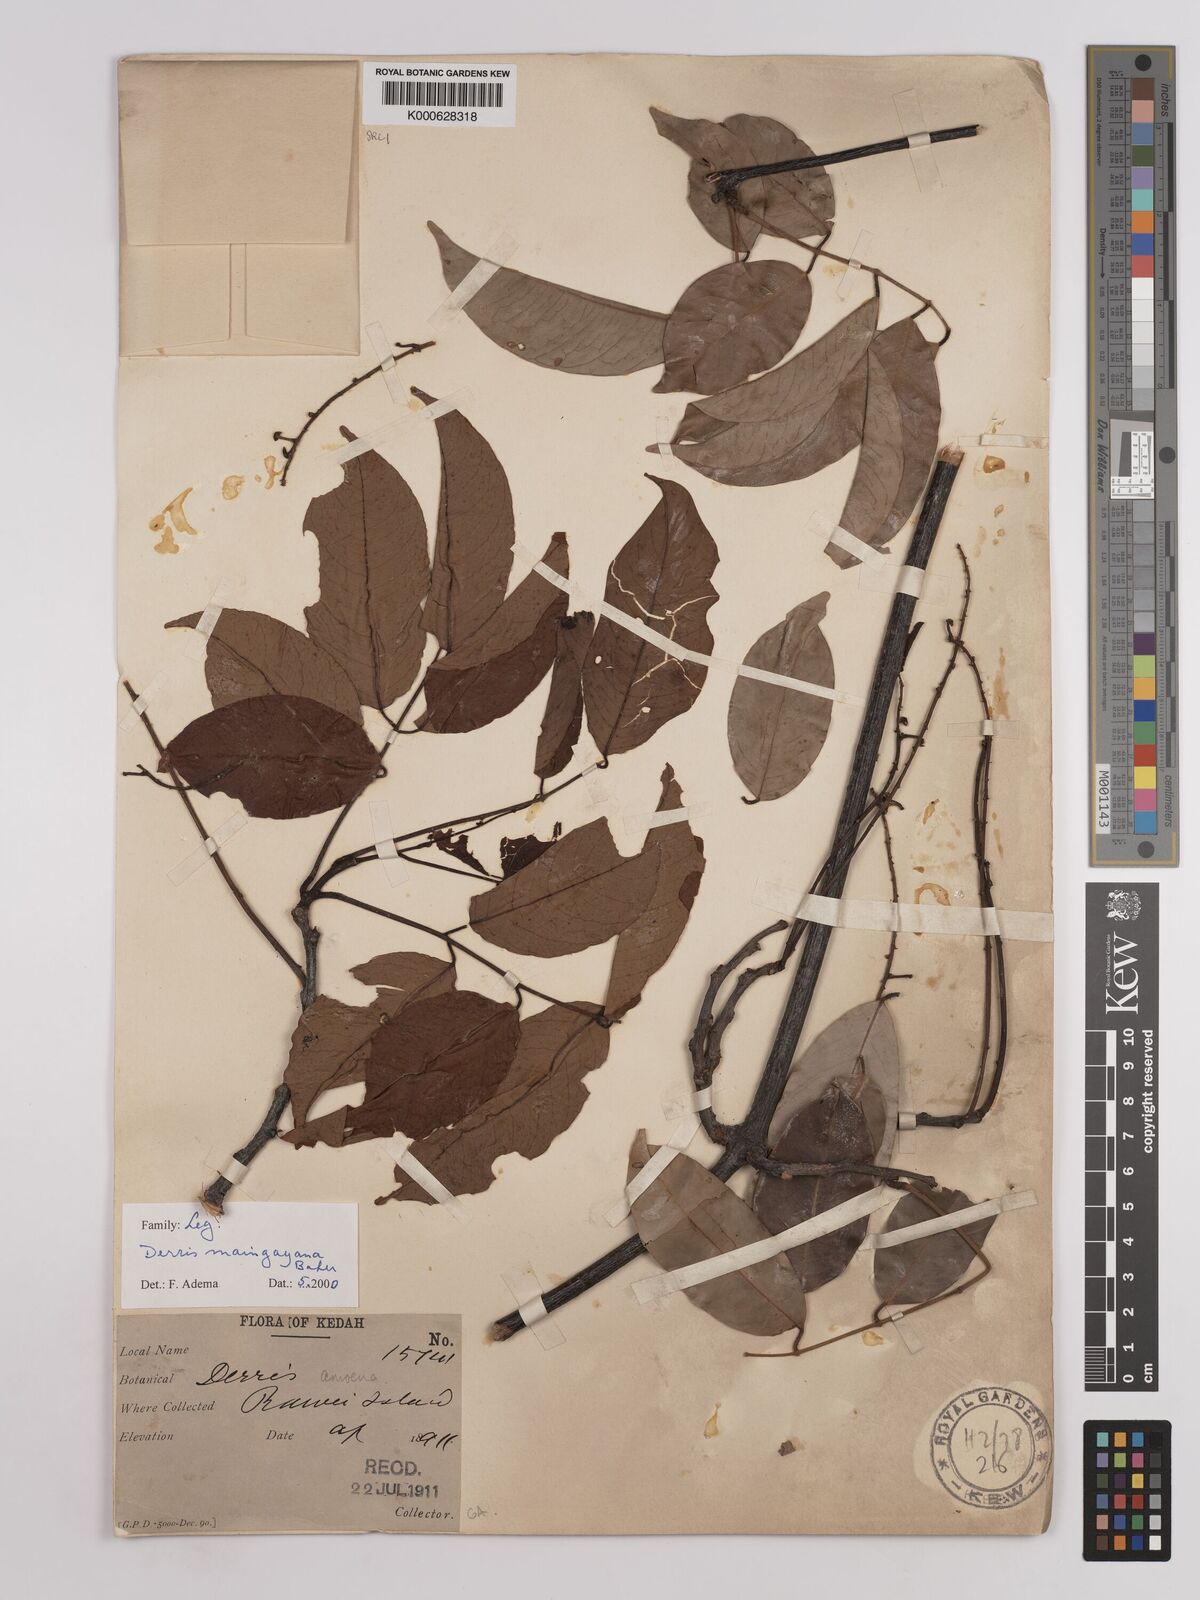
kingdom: Plantae
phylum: Tracheophyta
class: Magnoliopsida
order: Fabales
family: Fabaceae
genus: Derris
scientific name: Derris amoena
